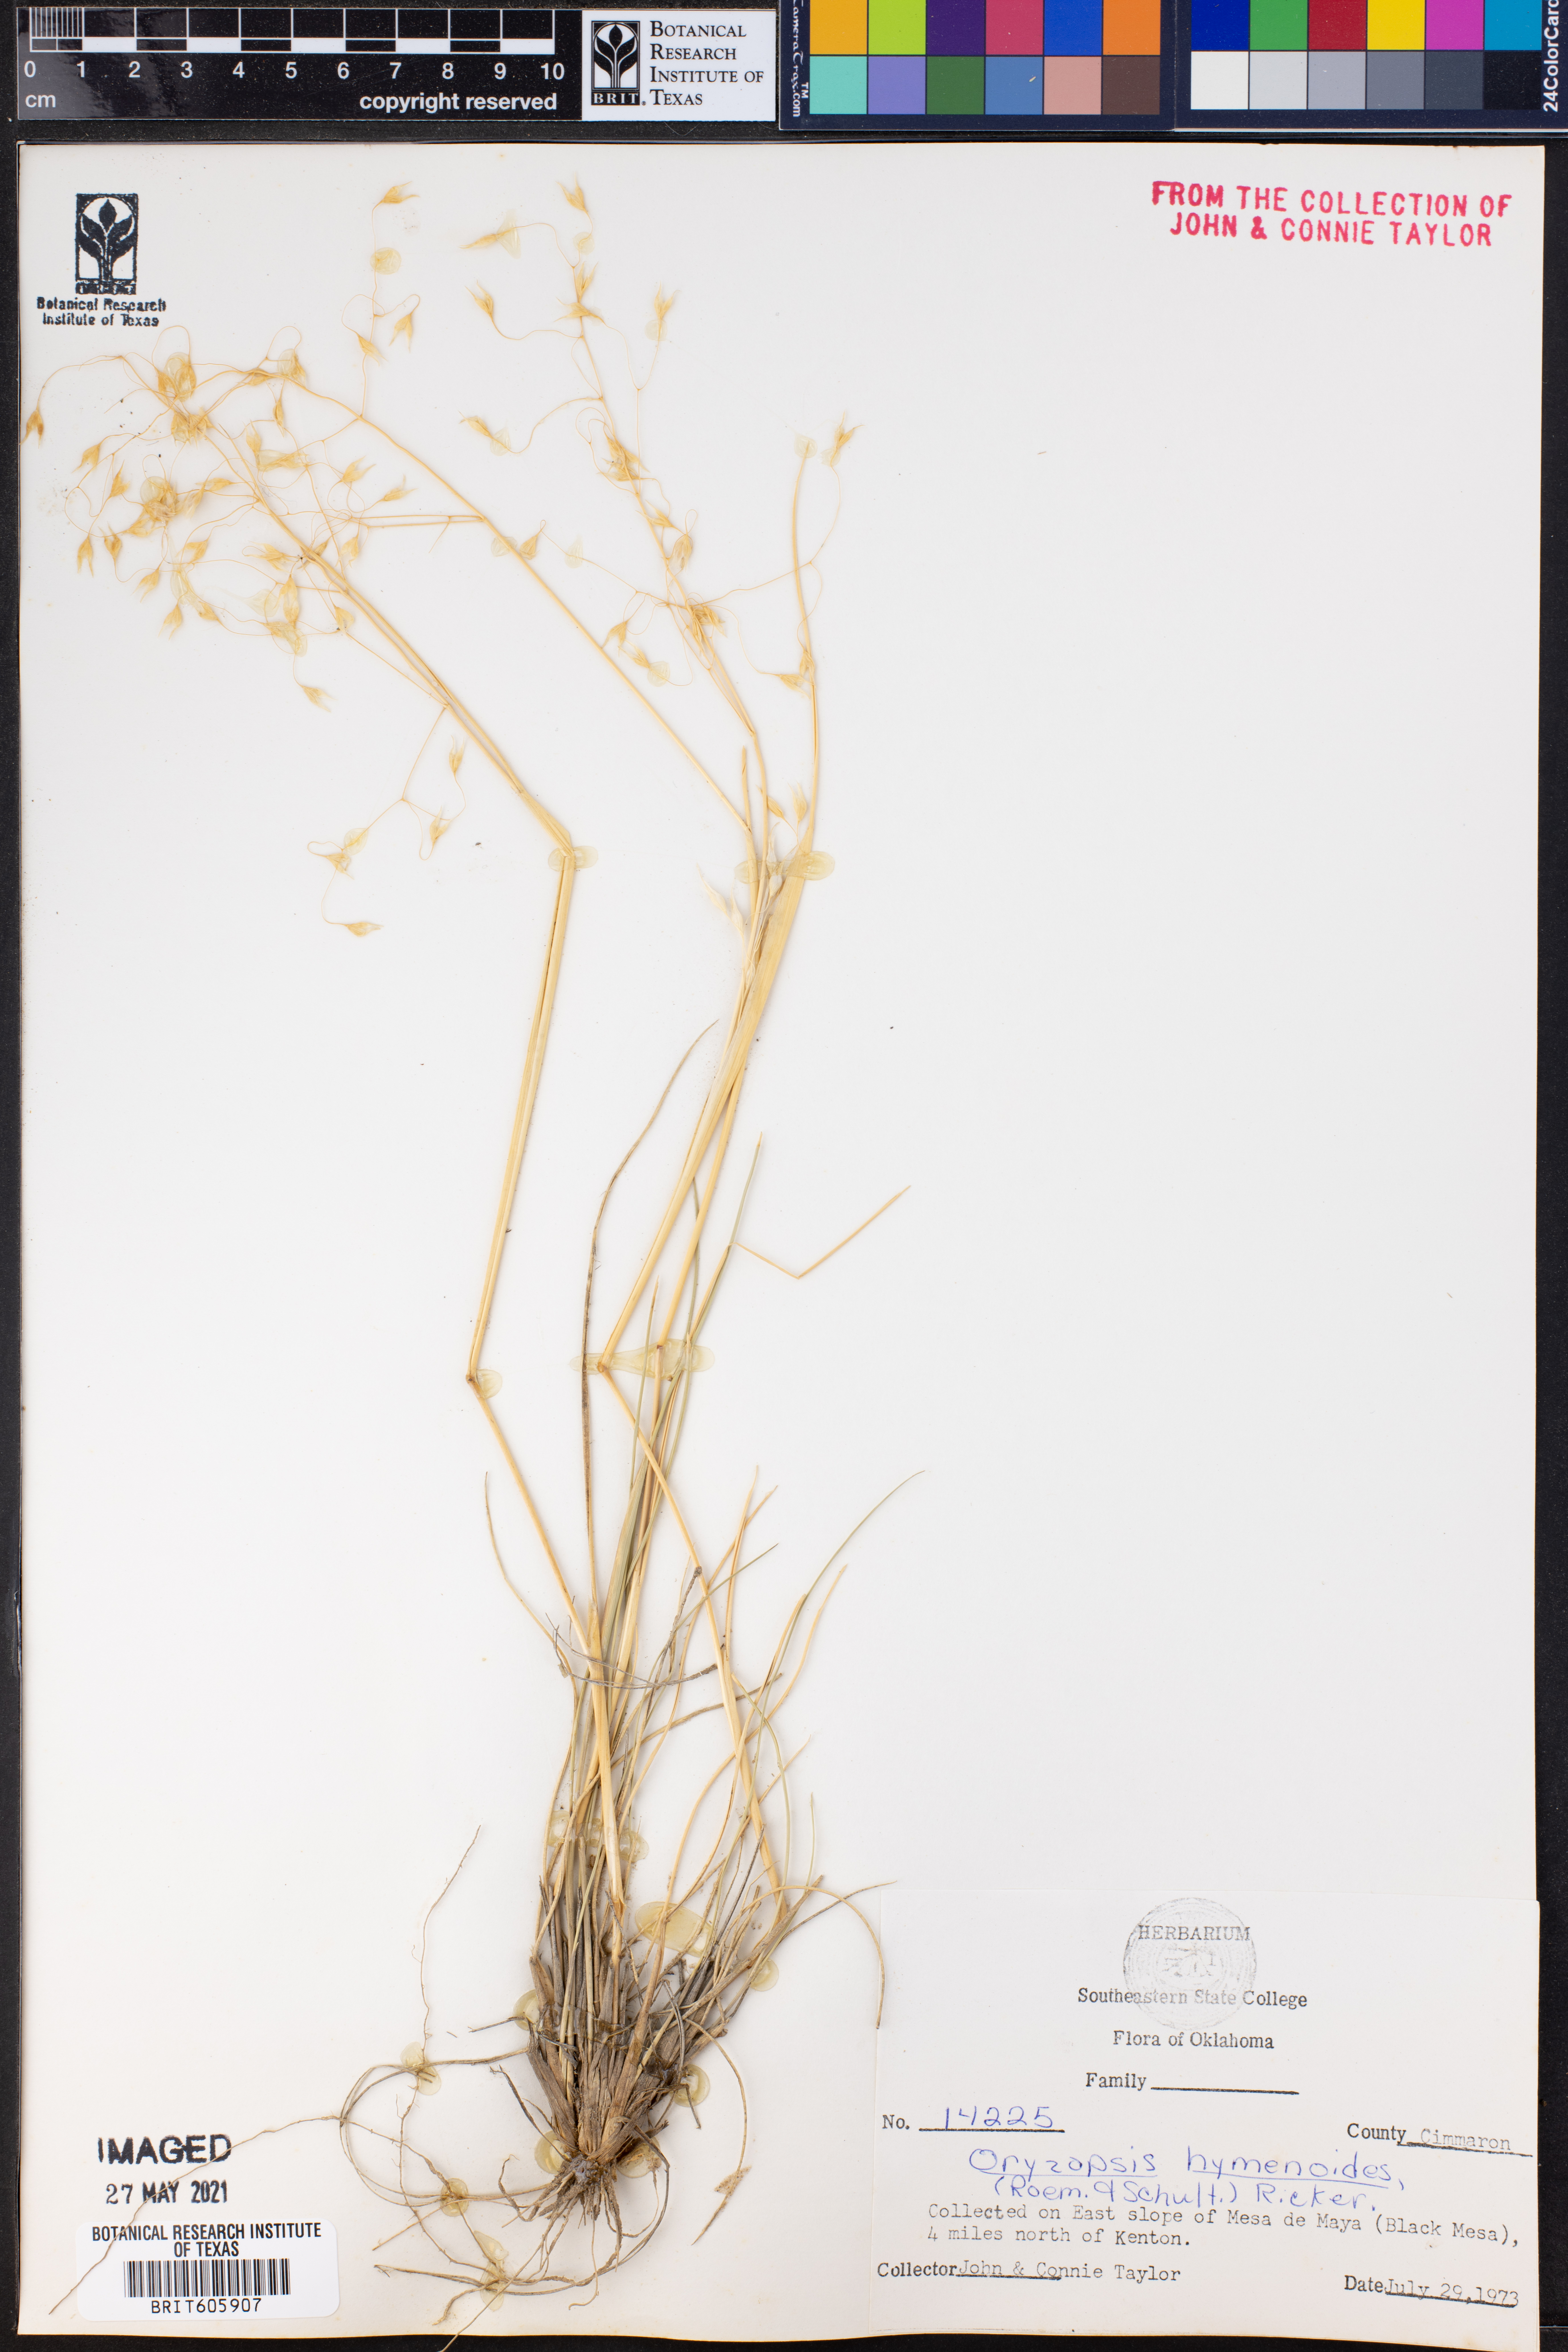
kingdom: Plantae
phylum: Tracheophyta
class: Liliopsida
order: Poales
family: Poaceae
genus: Eriocoma
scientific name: Eriocoma hymenoides
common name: Indian mountain ricegrass
